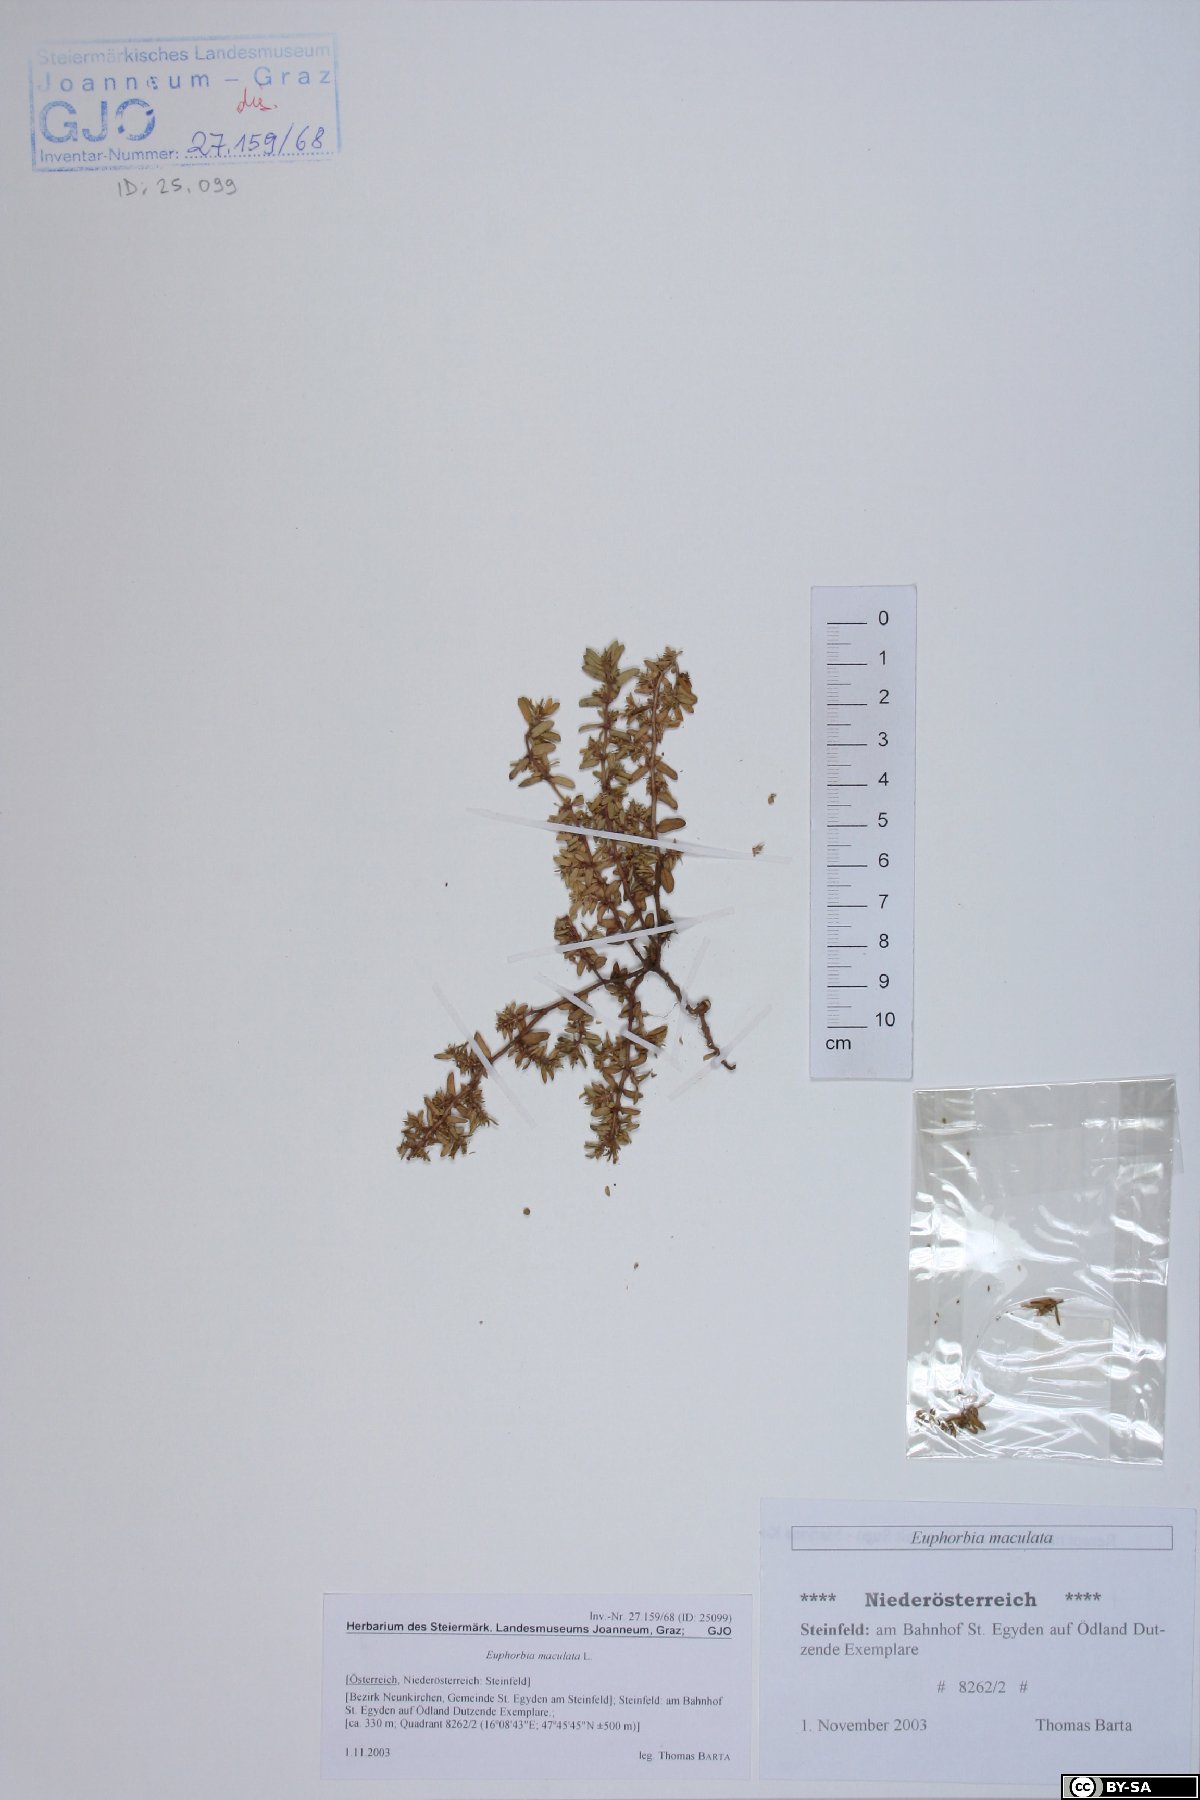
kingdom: Plantae
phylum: Tracheophyta
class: Magnoliopsida
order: Malpighiales
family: Euphorbiaceae
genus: Euphorbia
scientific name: Euphorbia maculata
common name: Spotted spurge
